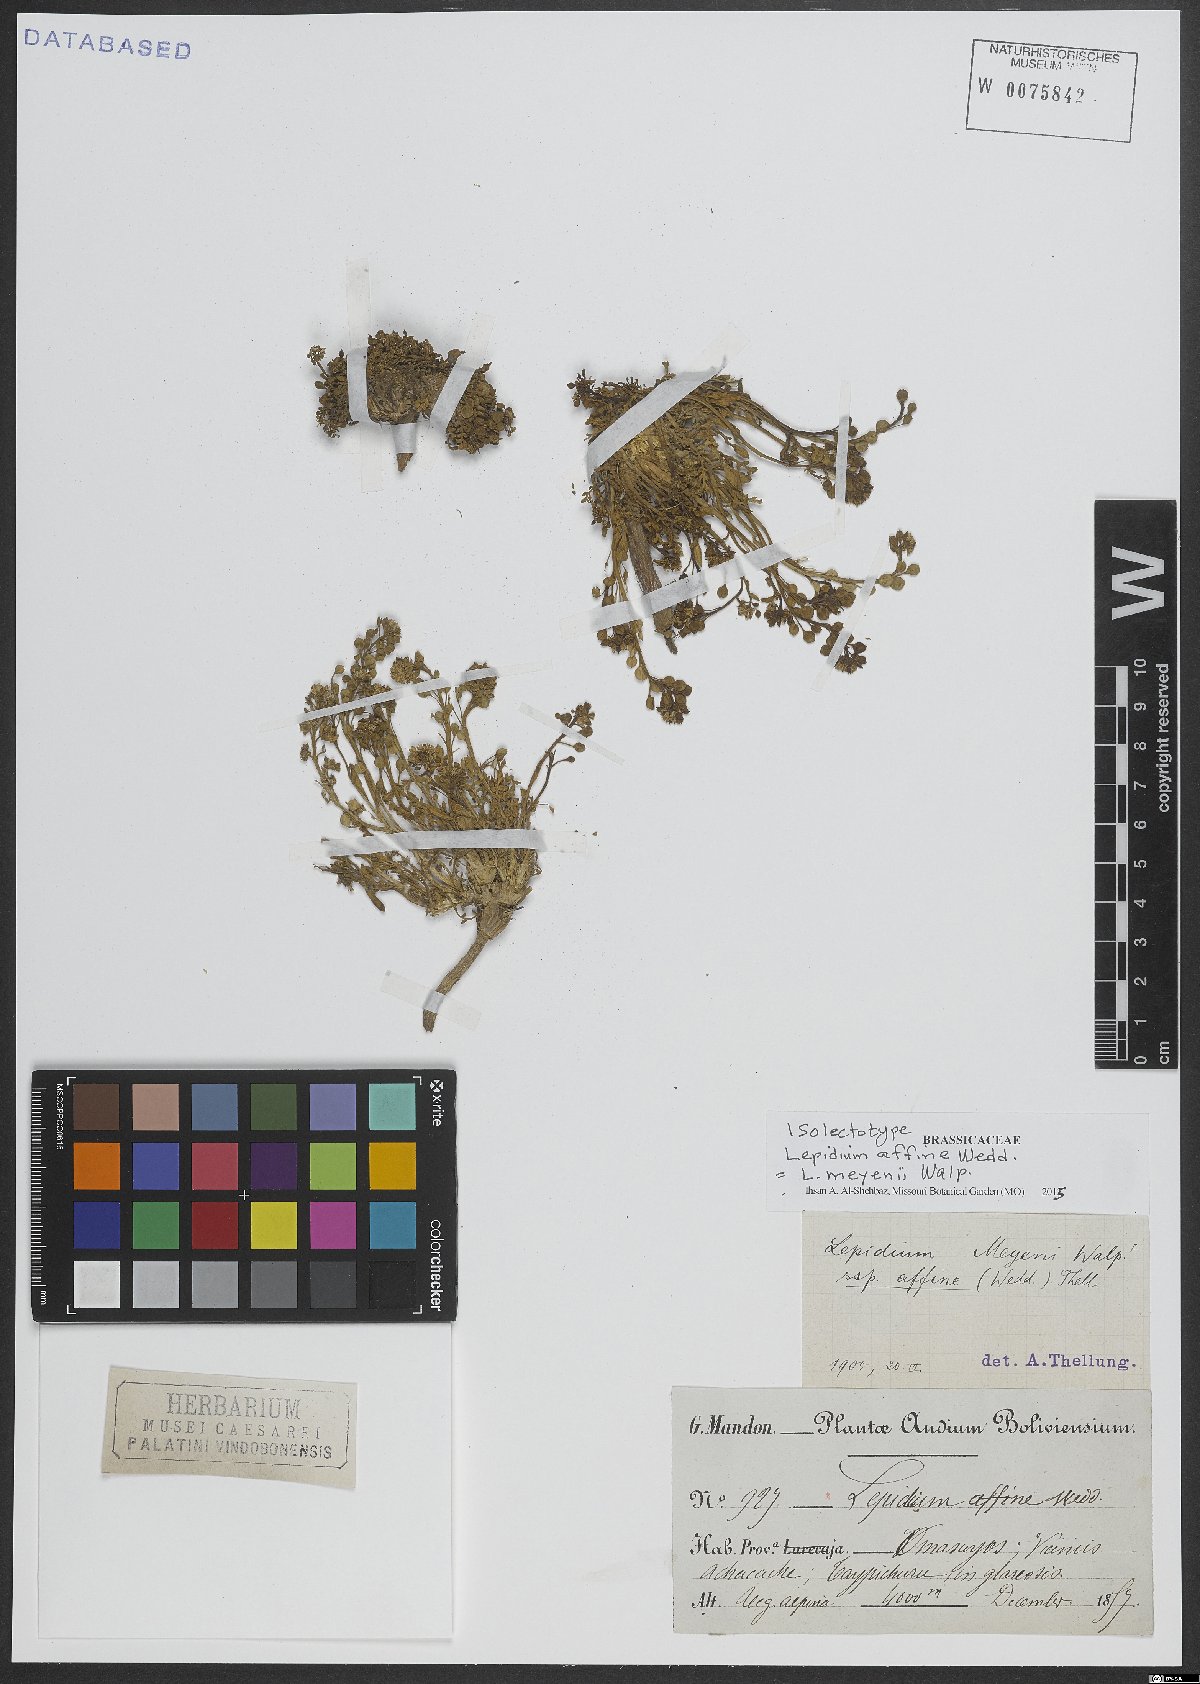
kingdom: Plantae
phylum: Tracheophyta
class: Magnoliopsida
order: Brassicales
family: Brassicaceae
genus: Lepidium
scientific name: Lepidium meyenii
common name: Peruvian-ginseng
